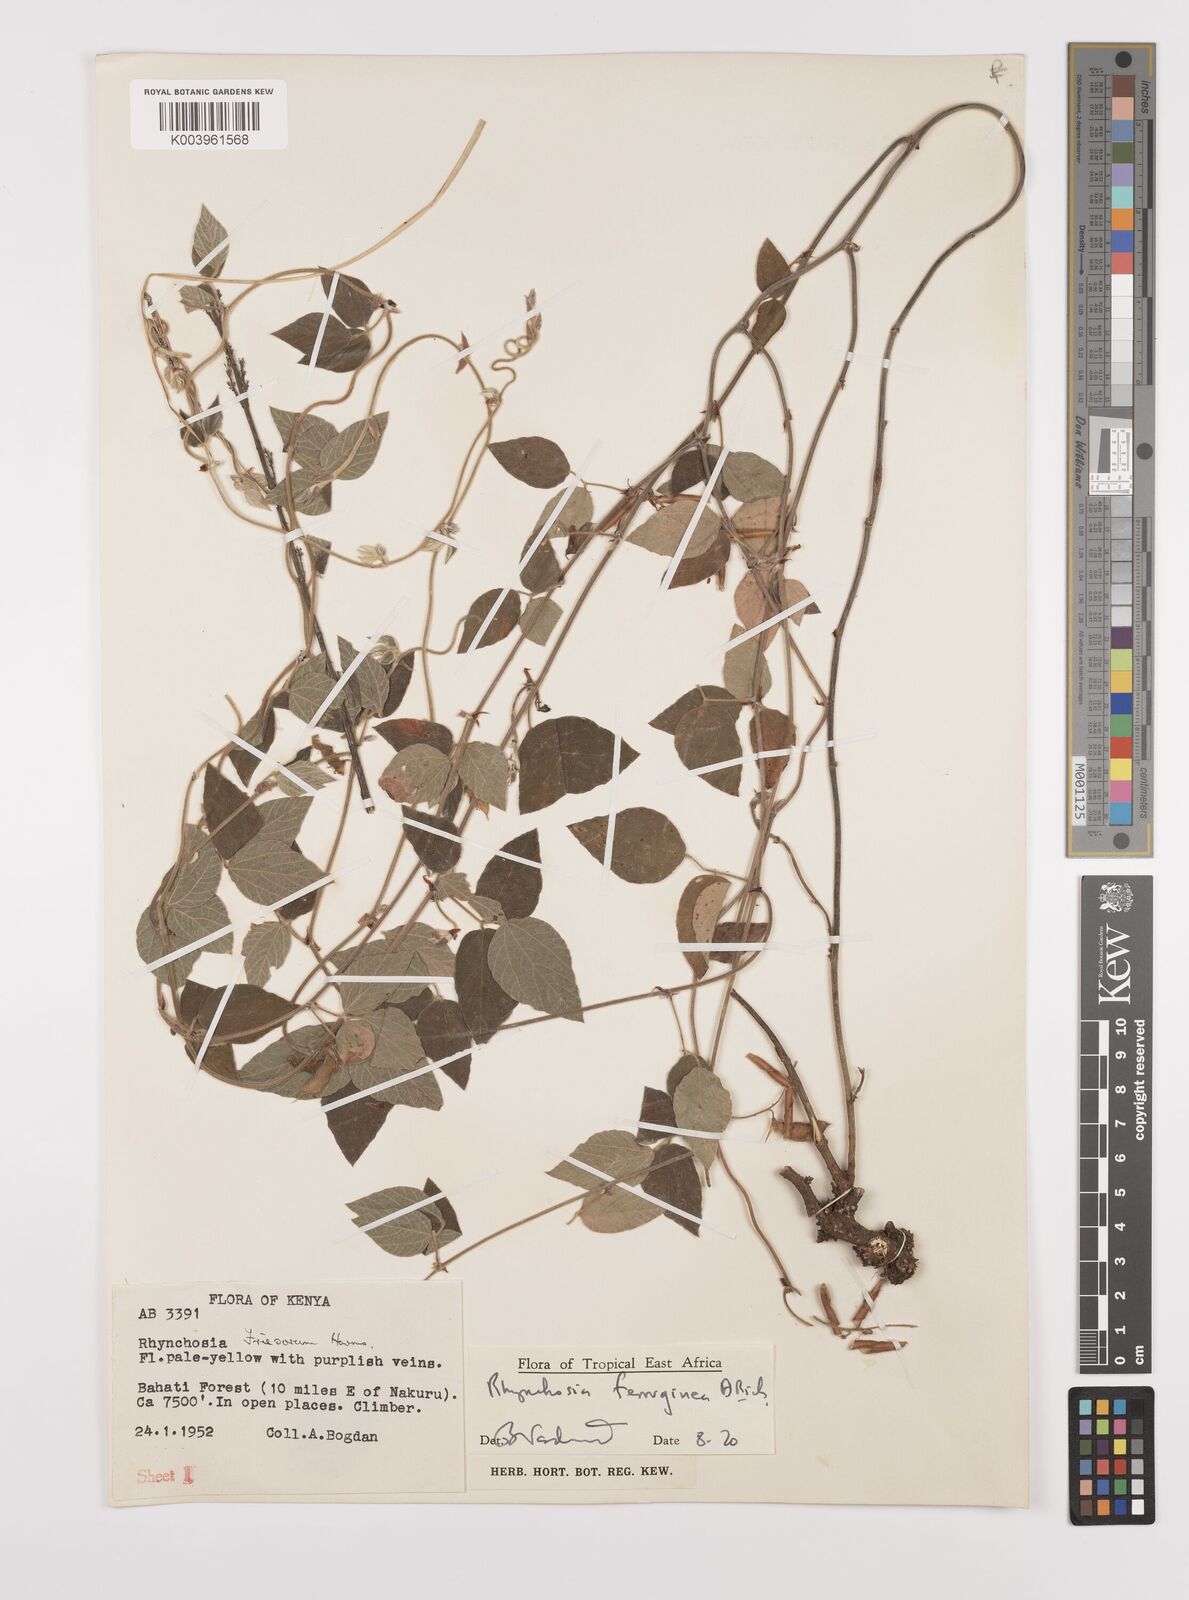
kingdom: Plantae
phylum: Tracheophyta
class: Magnoliopsida
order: Fabales
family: Fabaceae
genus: Rhynchosia
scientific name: Rhynchosia ferruginea
